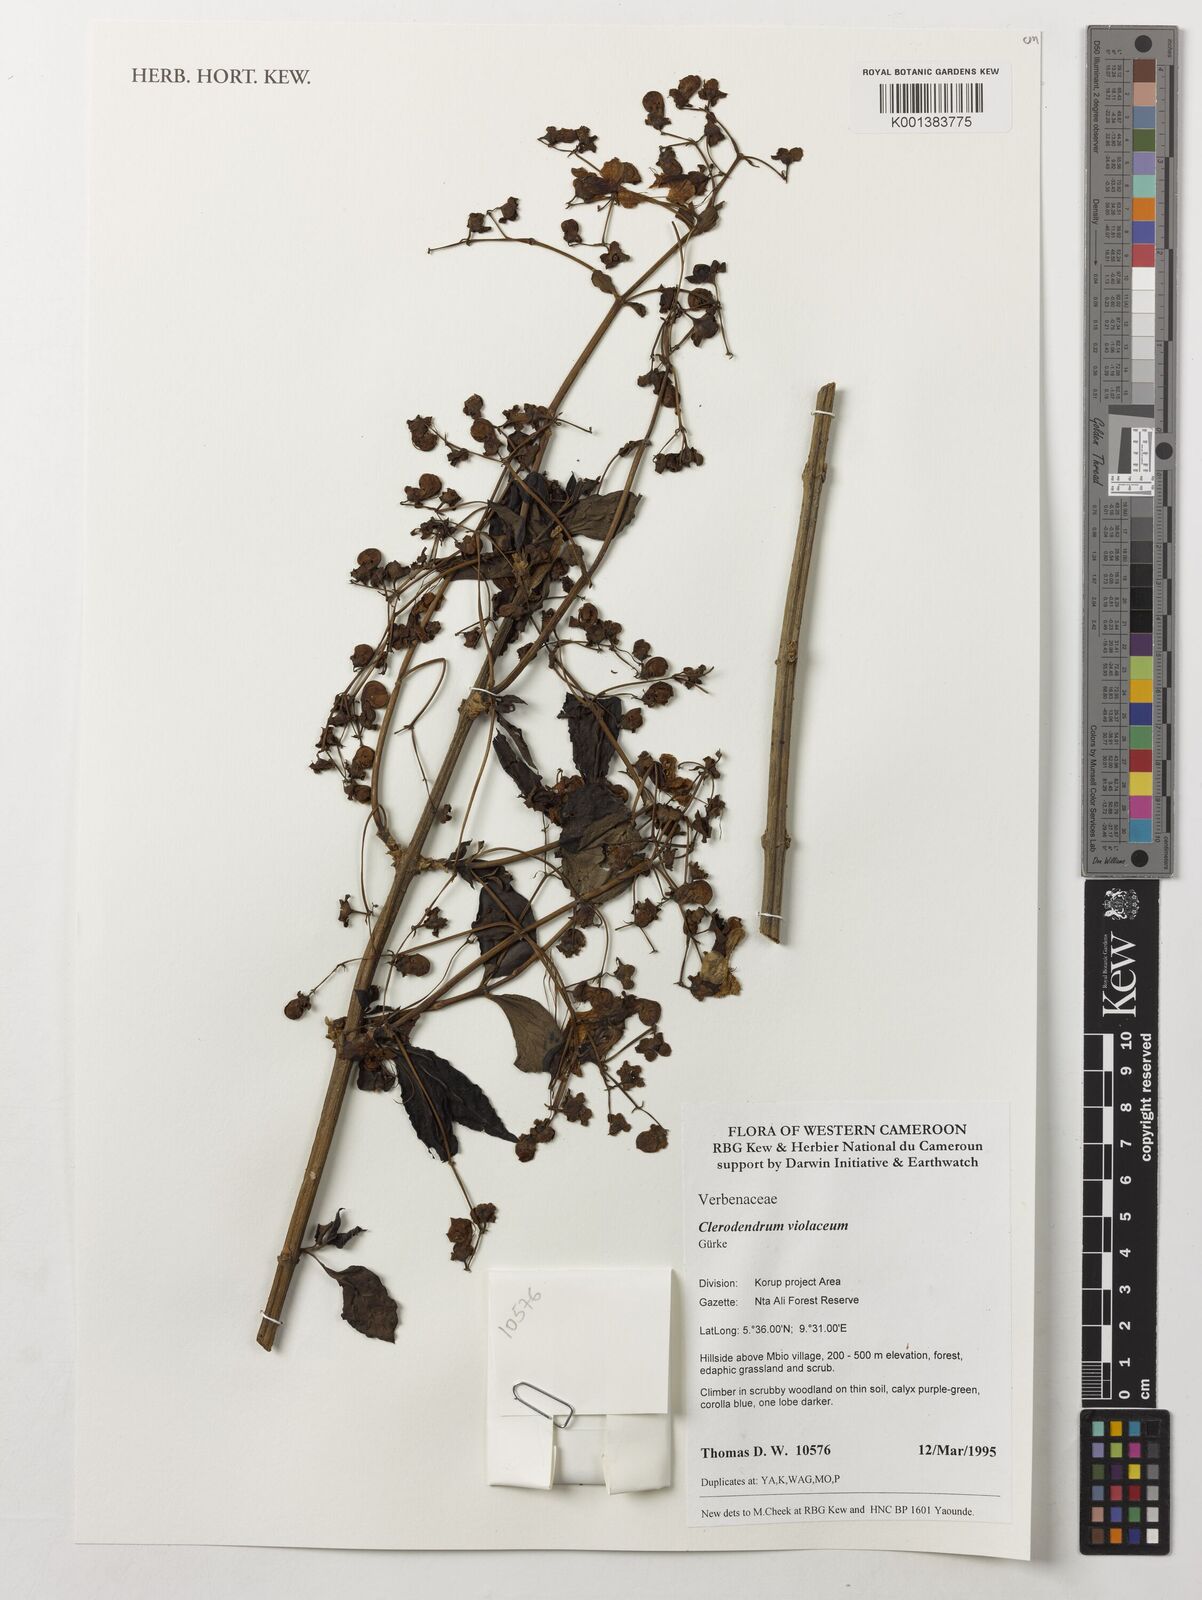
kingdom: Plantae
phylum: Tracheophyta
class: Magnoliopsida
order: Lamiales
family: Lamiaceae
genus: Rotheca
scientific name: Rotheca violacea
